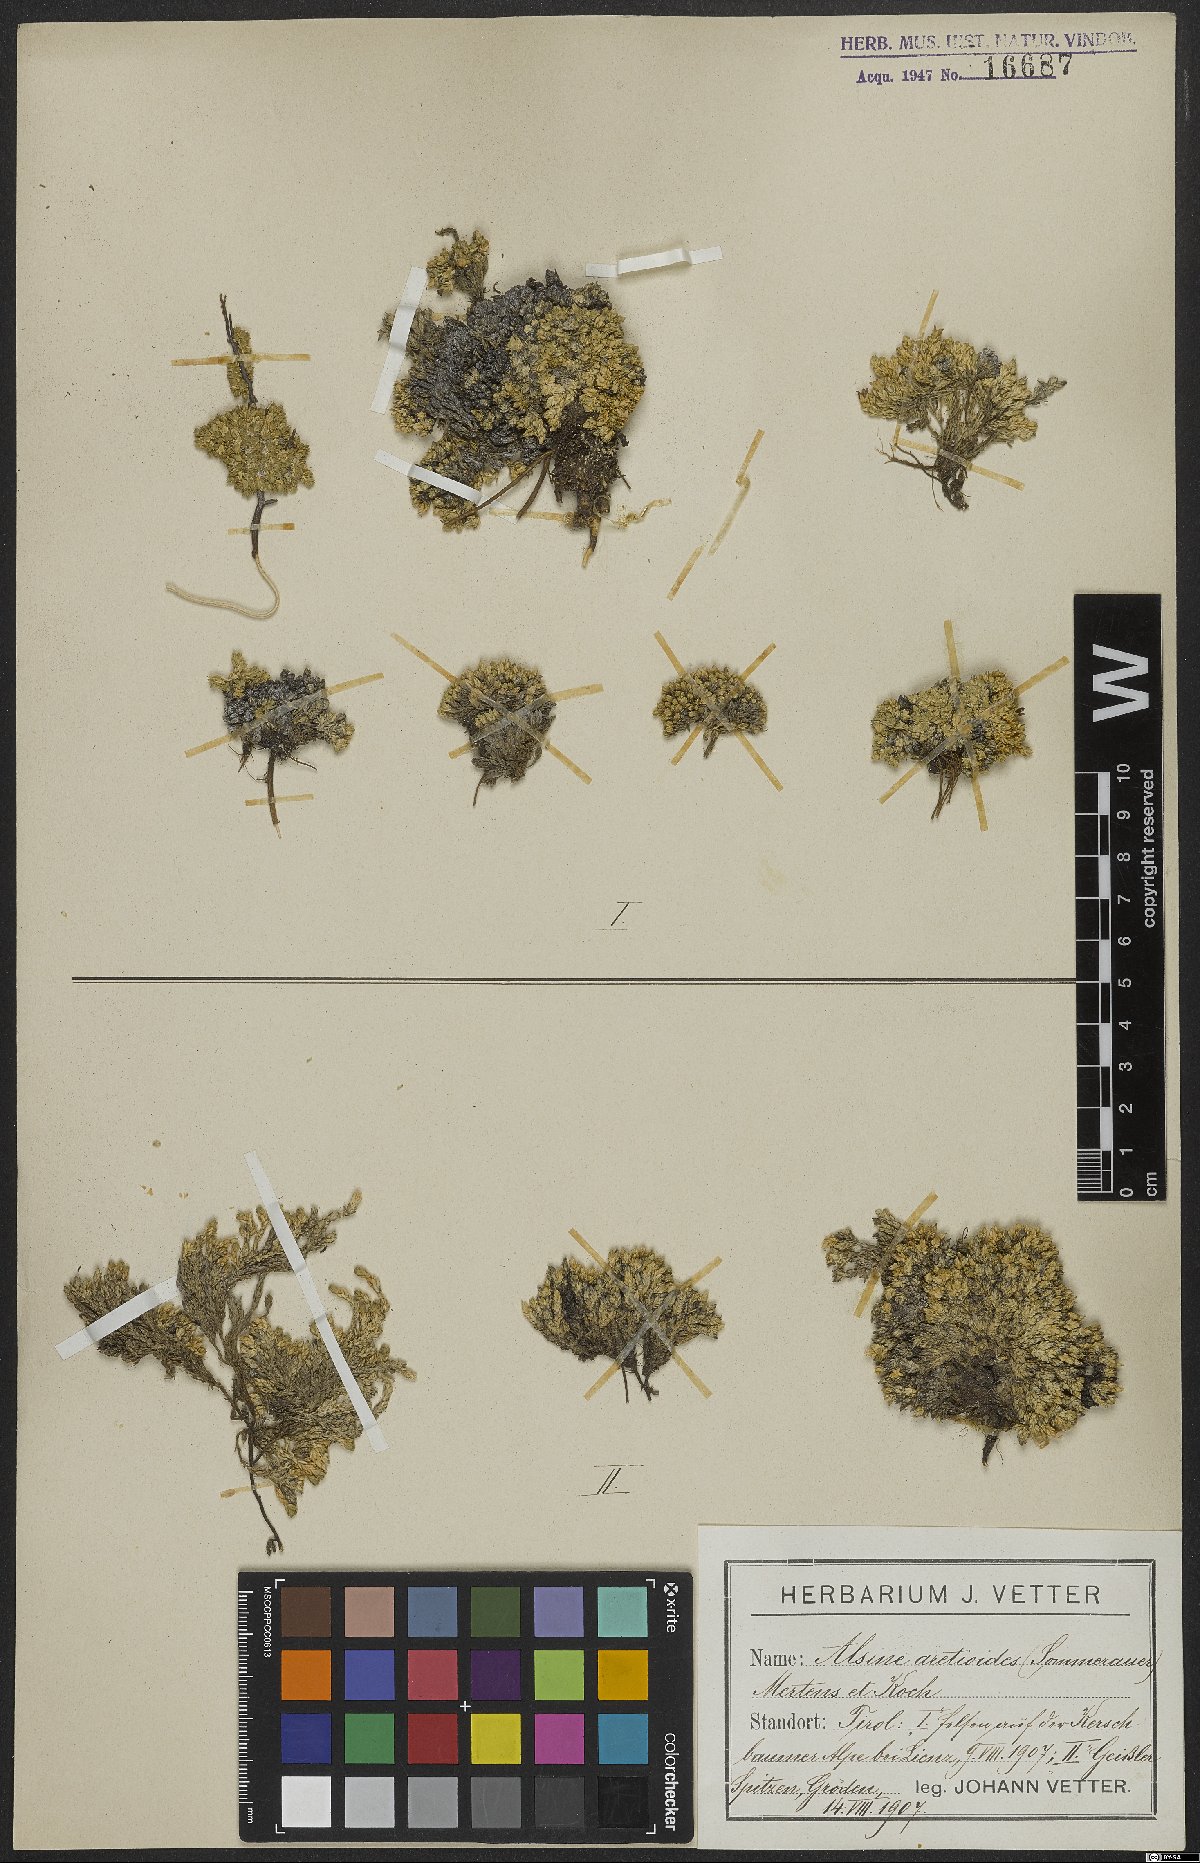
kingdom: Plantae
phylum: Tracheophyta
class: Magnoliopsida
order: Caryophyllales
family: Caryophyllaceae
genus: Facchinia
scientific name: Facchinia cherlerioides
